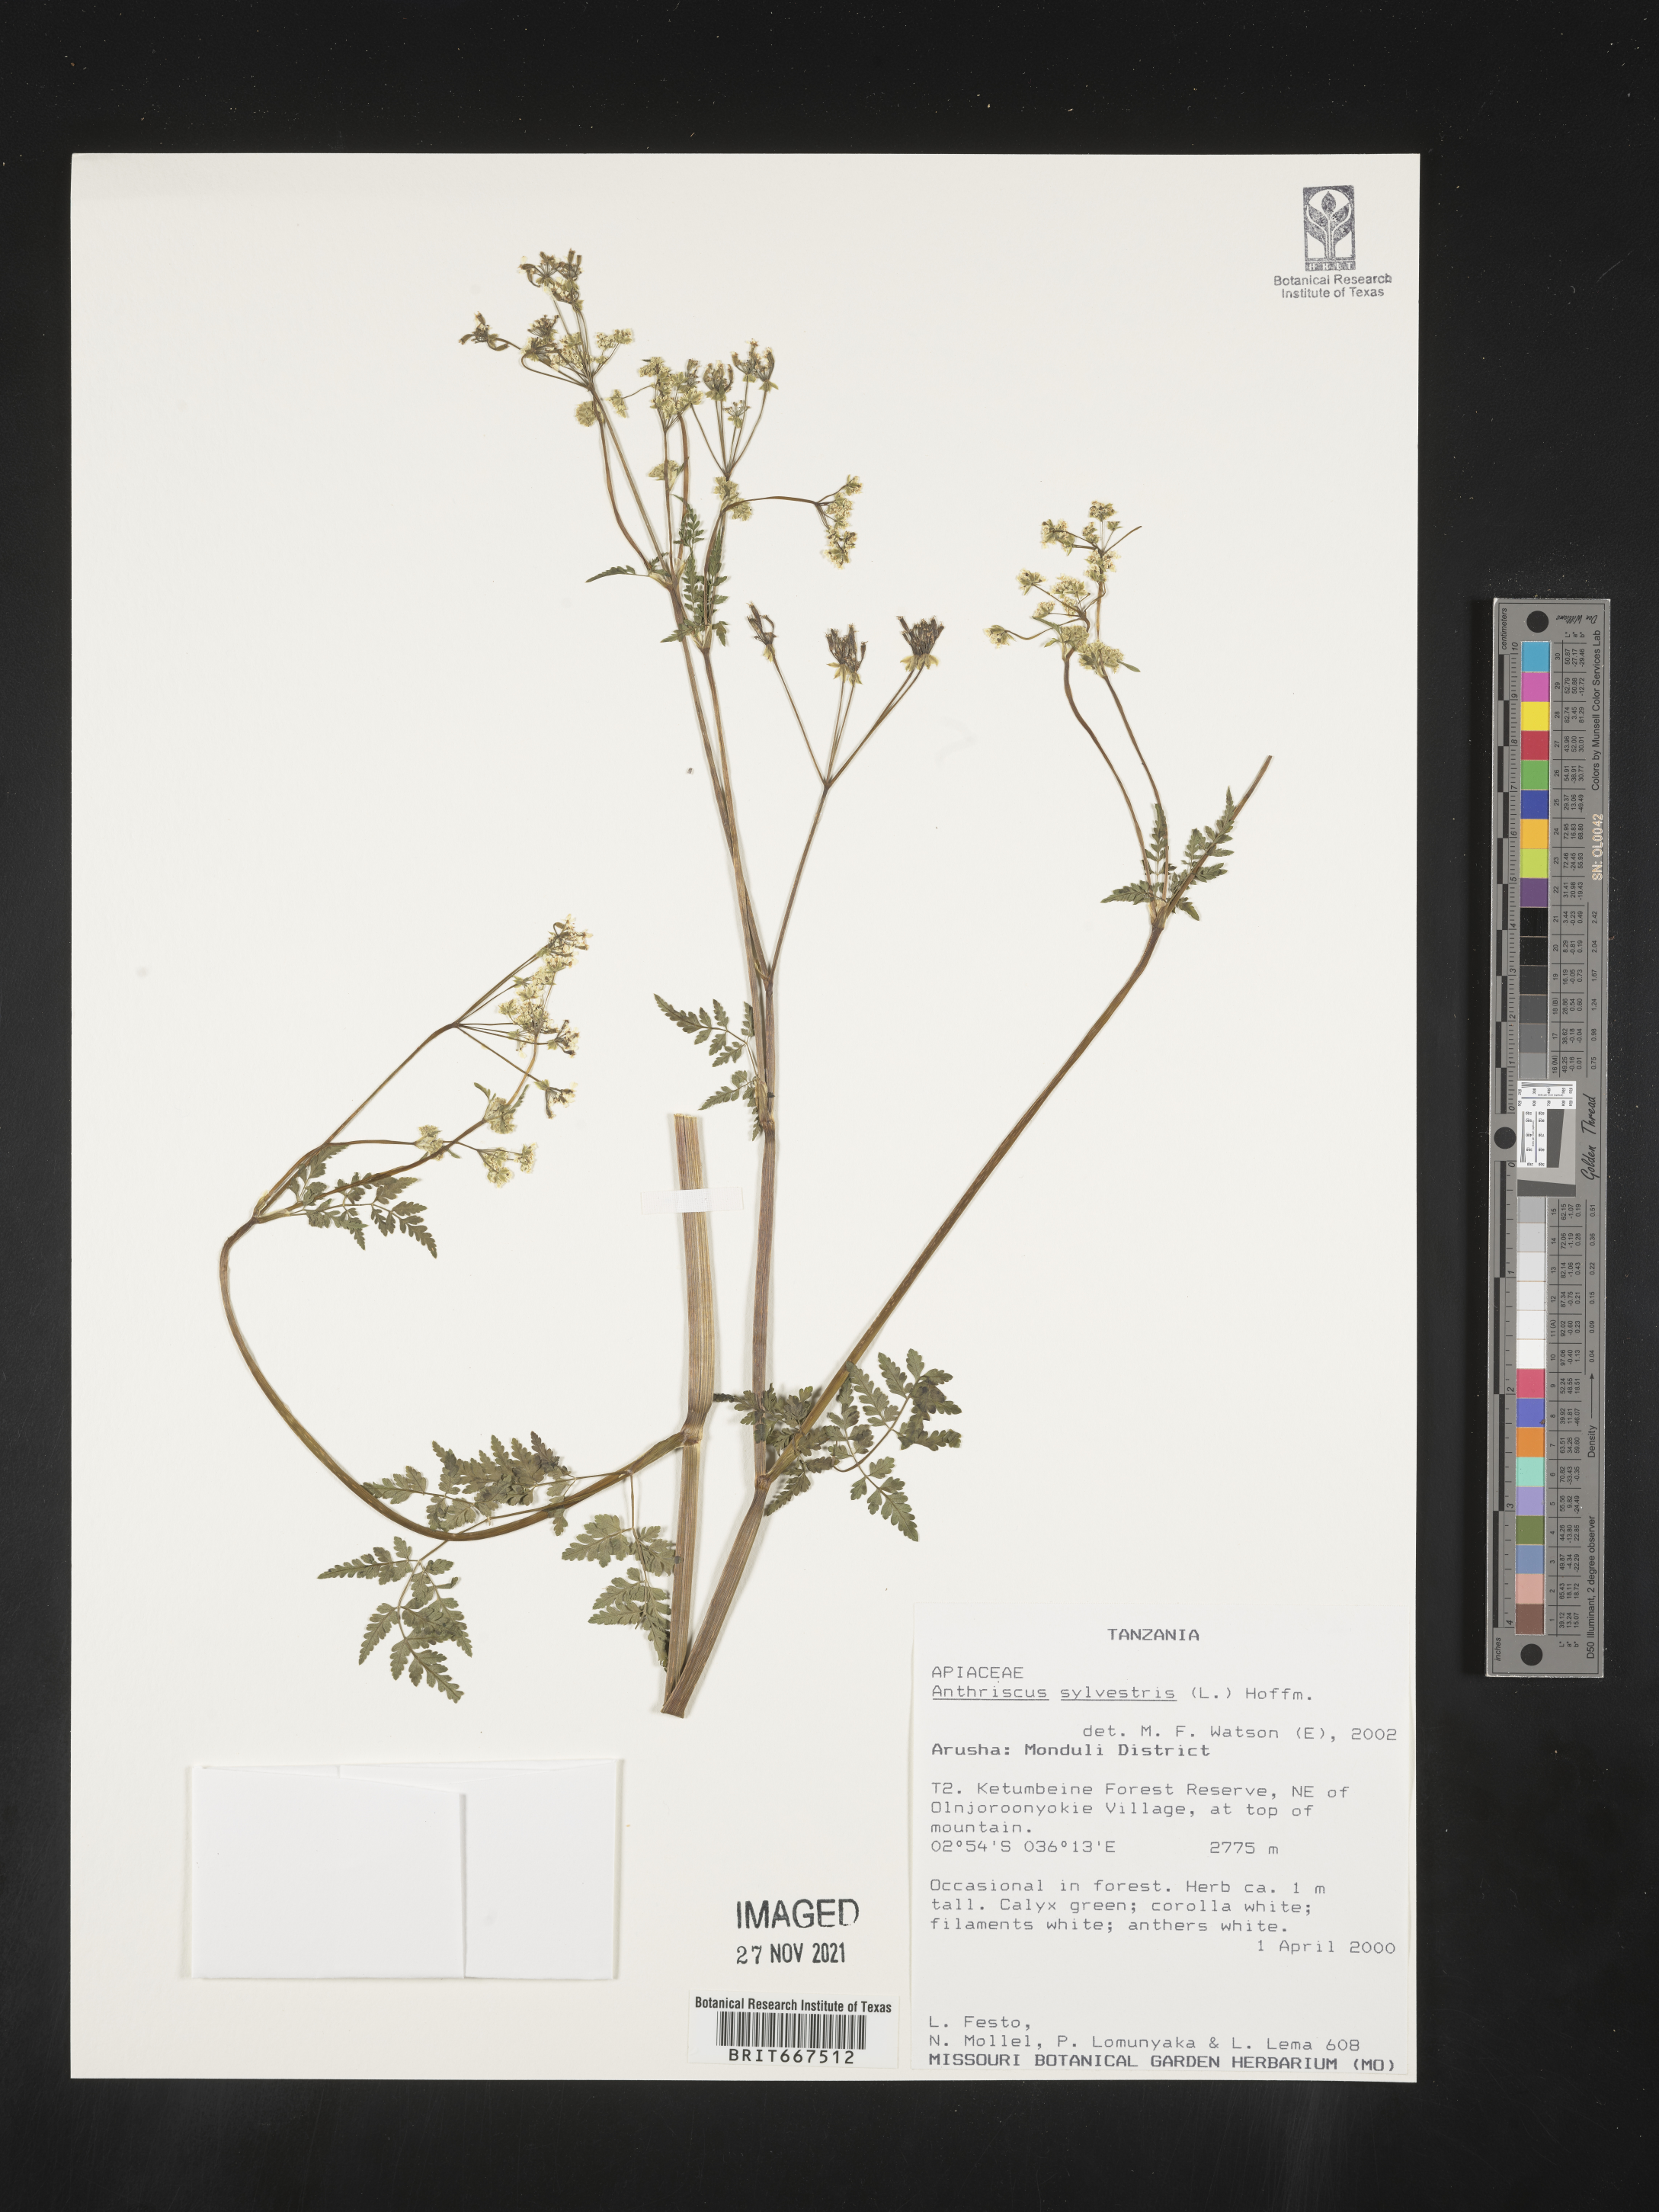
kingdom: Plantae
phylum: Tracheophyta
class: Magnoliopsida
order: Apiales
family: Apiaceae
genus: Anthriscus
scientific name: Anthriscus
